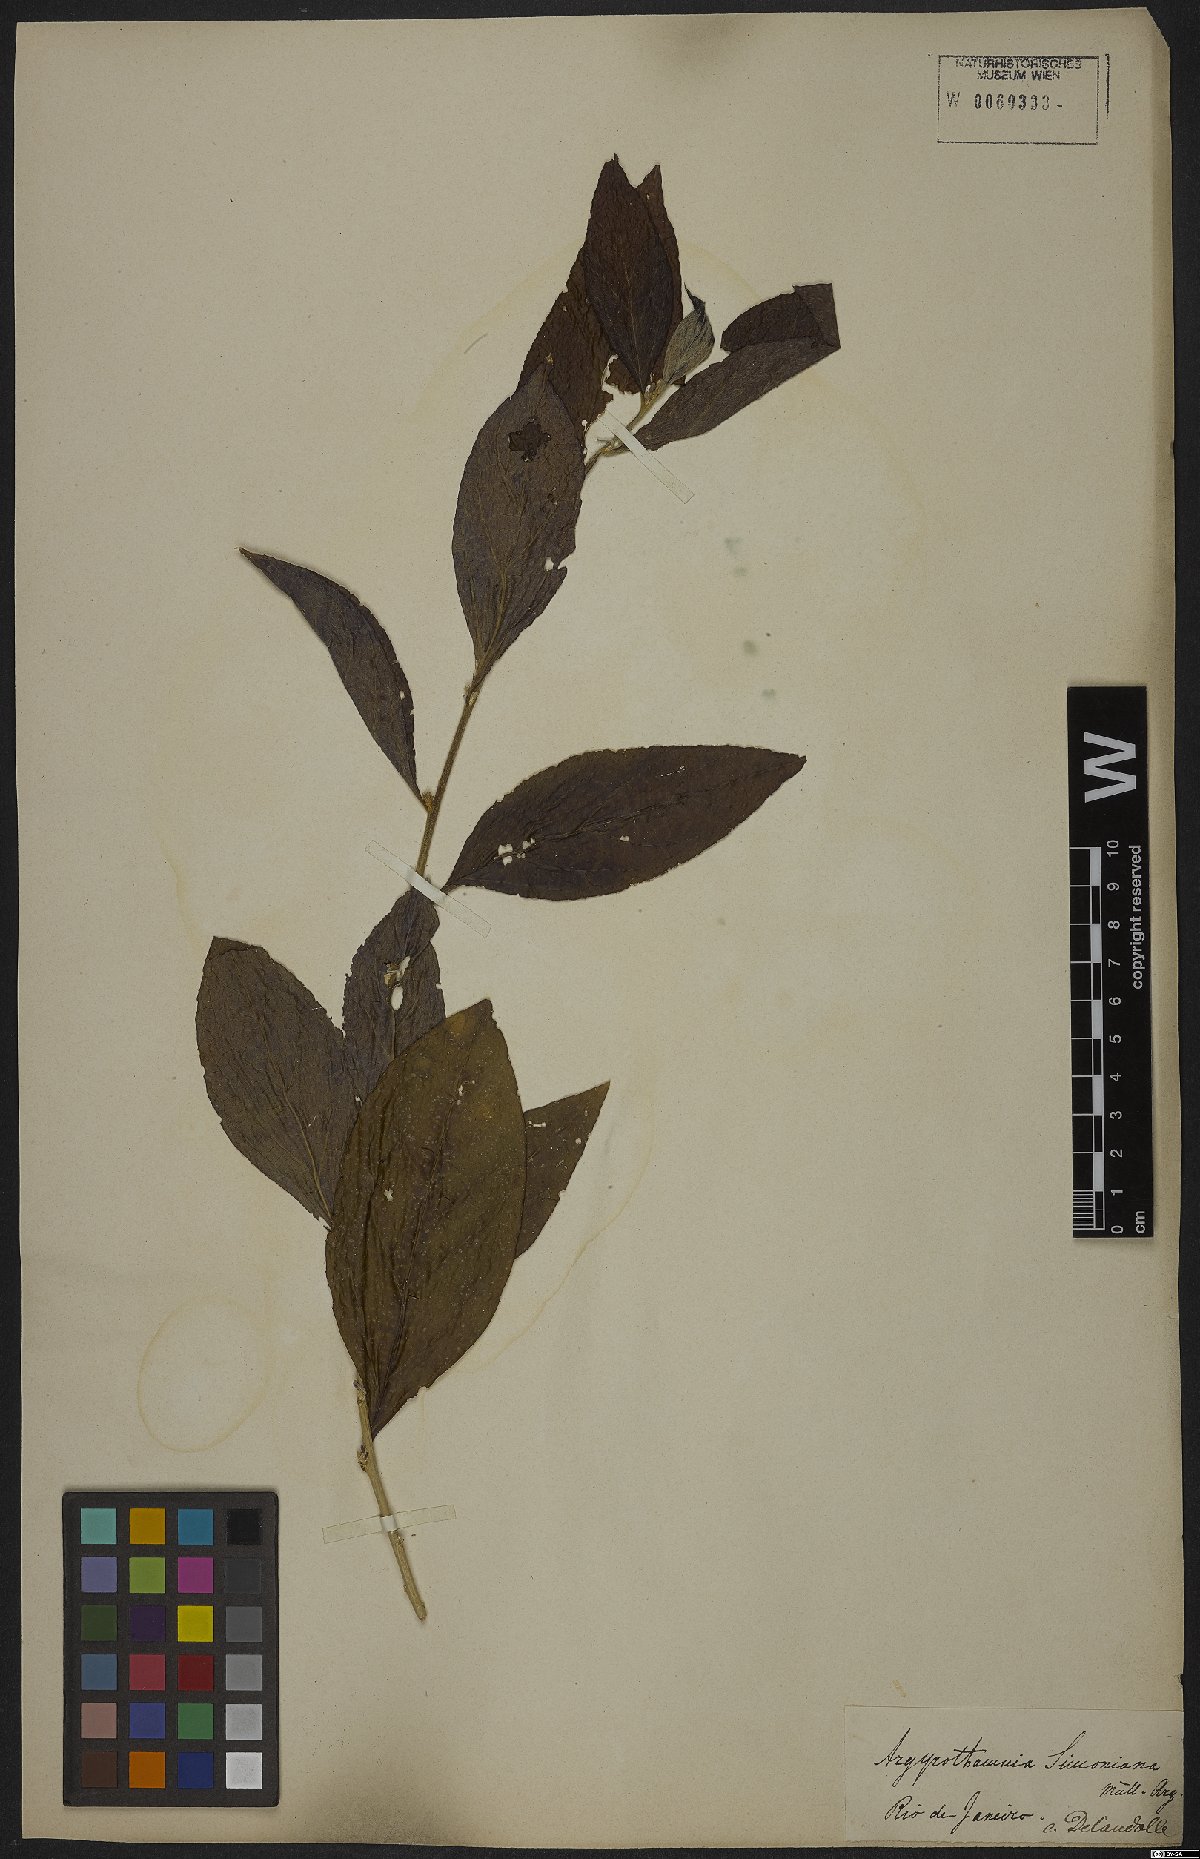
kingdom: Plantae
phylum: Tracheophyta
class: Magnoliopsida
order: Malpighiales
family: Euphorbiaceae
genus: Ditaxis
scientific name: Ditaxis simoniana
